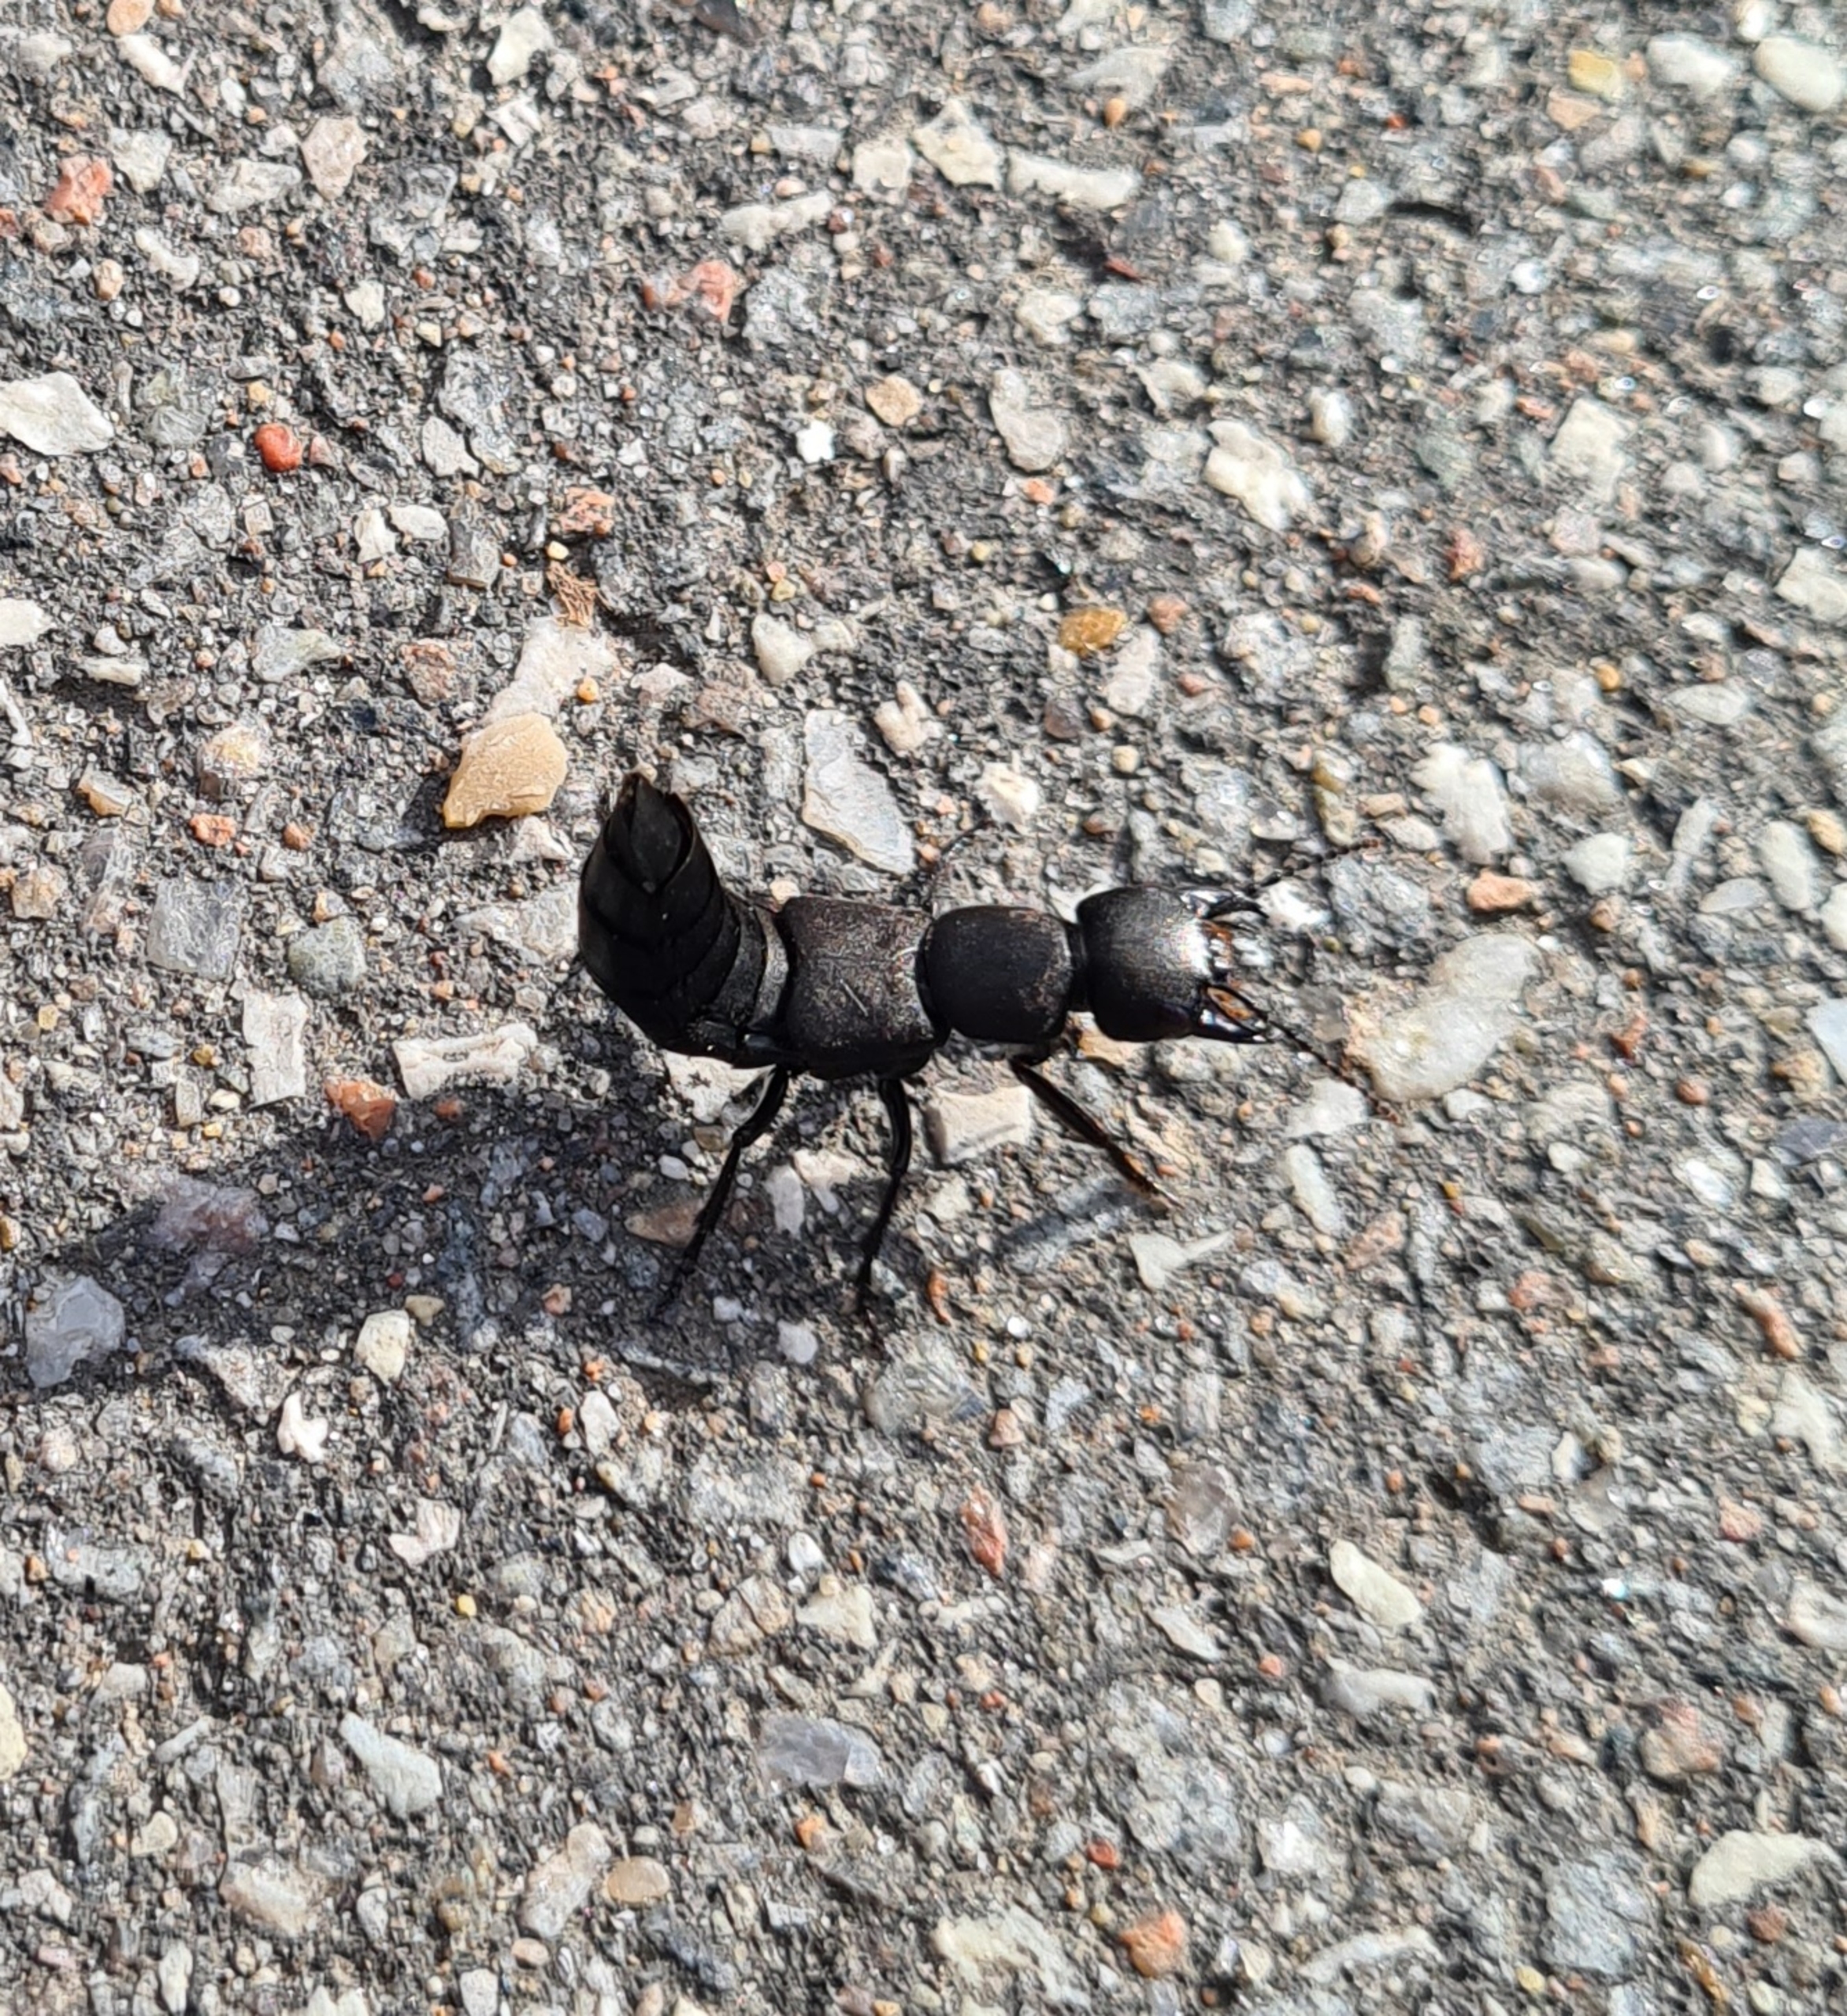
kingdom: Animalia
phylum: Arthropoda
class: Insecta
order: Coleoptera
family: Staphylinidae
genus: Ocypus
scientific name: Ocypus olens
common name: Stor rovbille
